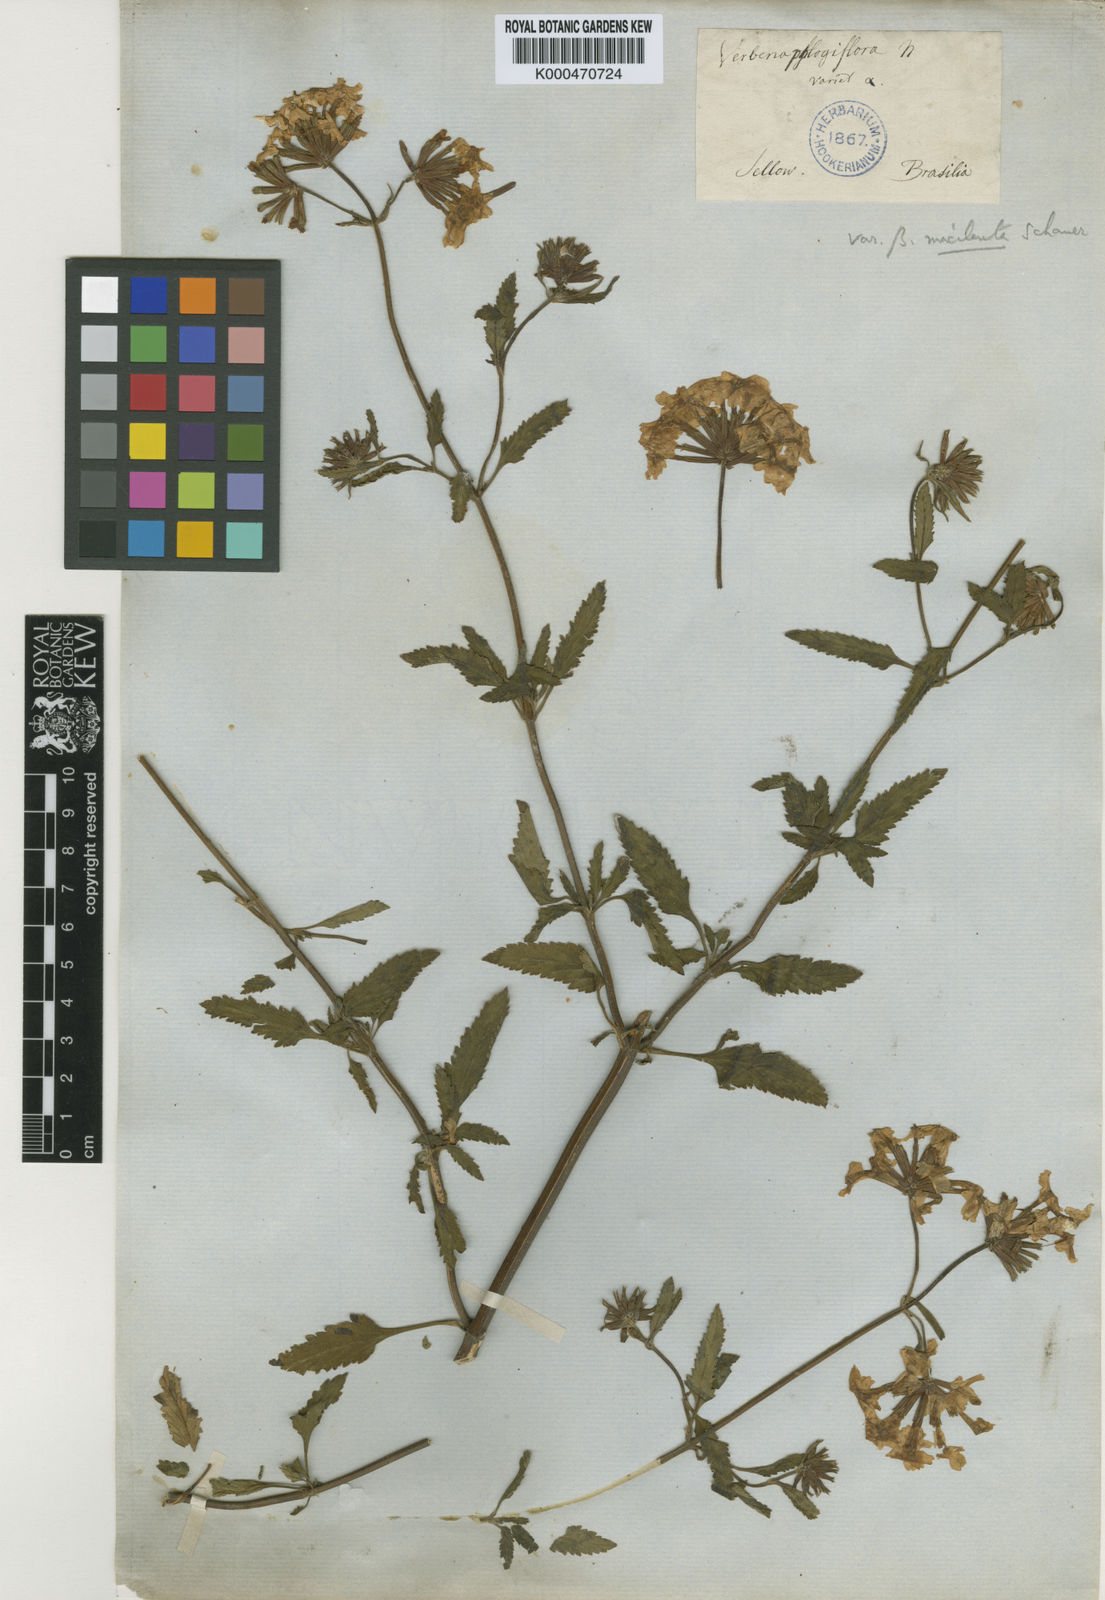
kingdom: Plantae
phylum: Tracheophyta
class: Magnoliopsida
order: Lamiales
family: Verbenaceae
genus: Verbena
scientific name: Verbena phlogiflora
